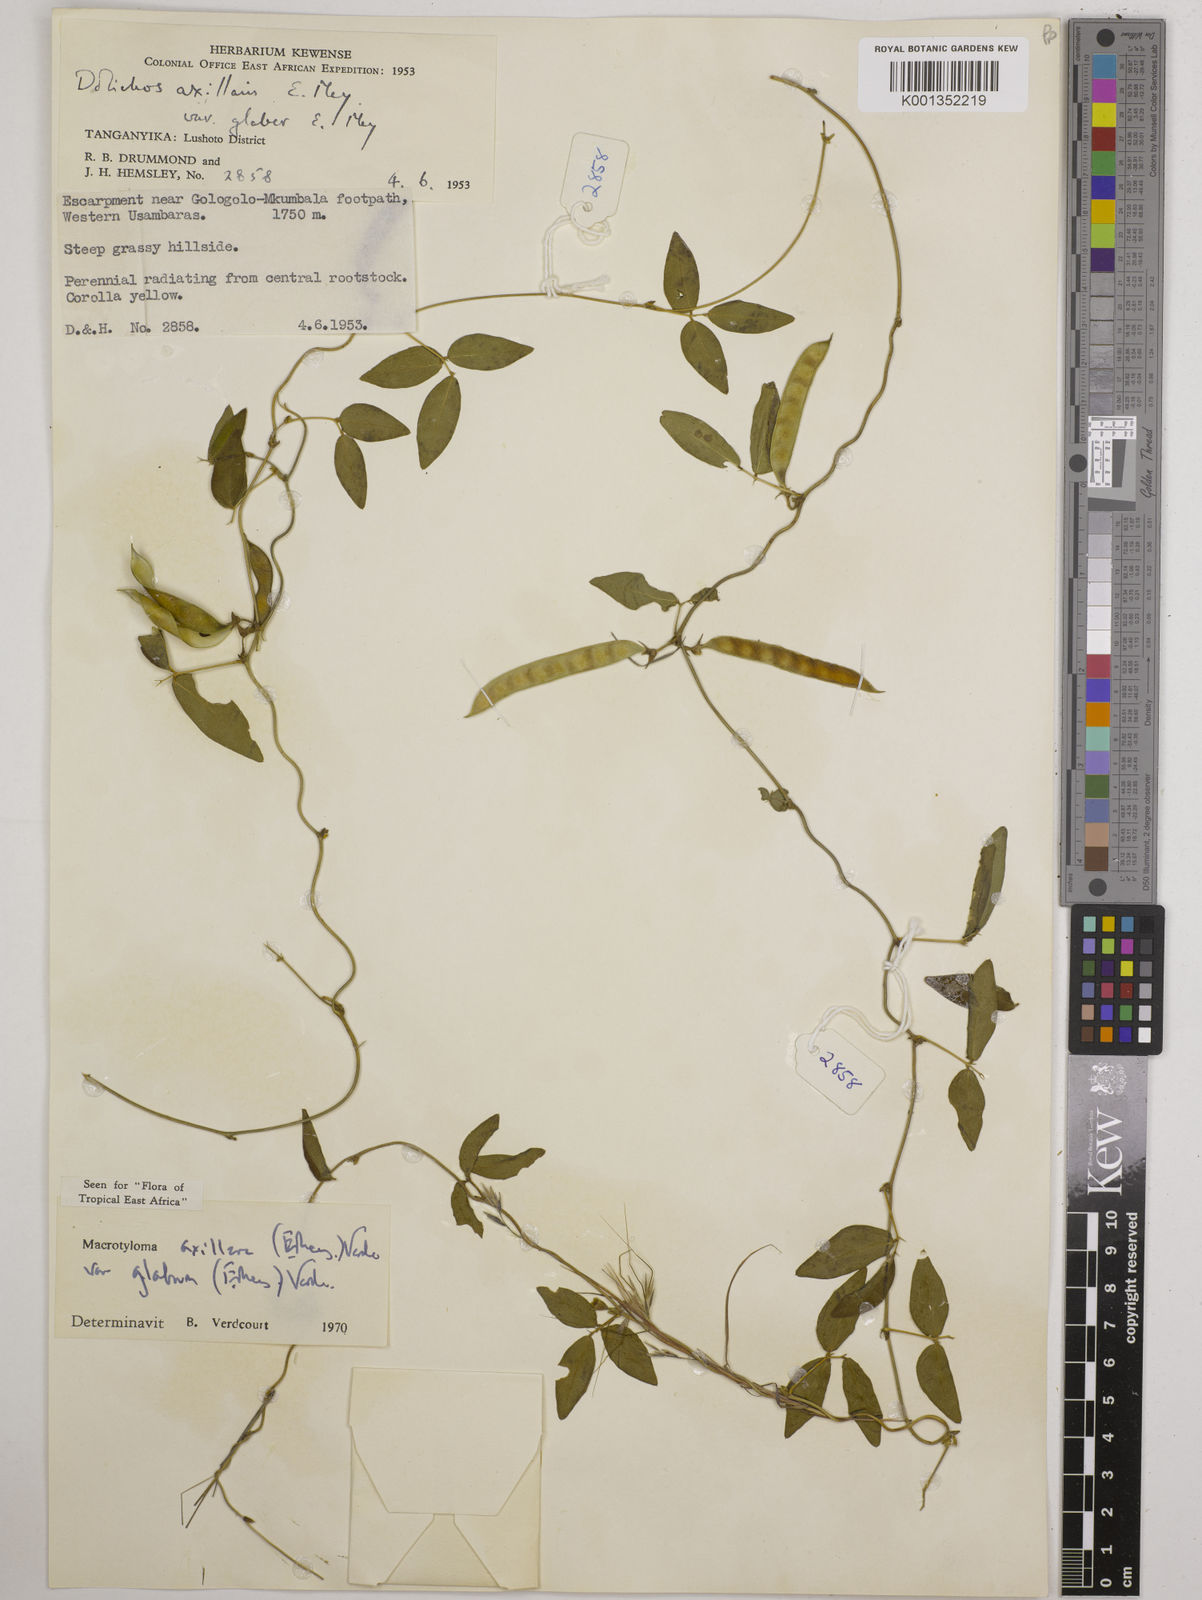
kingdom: Plantae
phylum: Tracheophyta
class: Magnoliopsida
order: Fabales
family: Fabaceae
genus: Macrotyloma
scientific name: Macrotyloma
